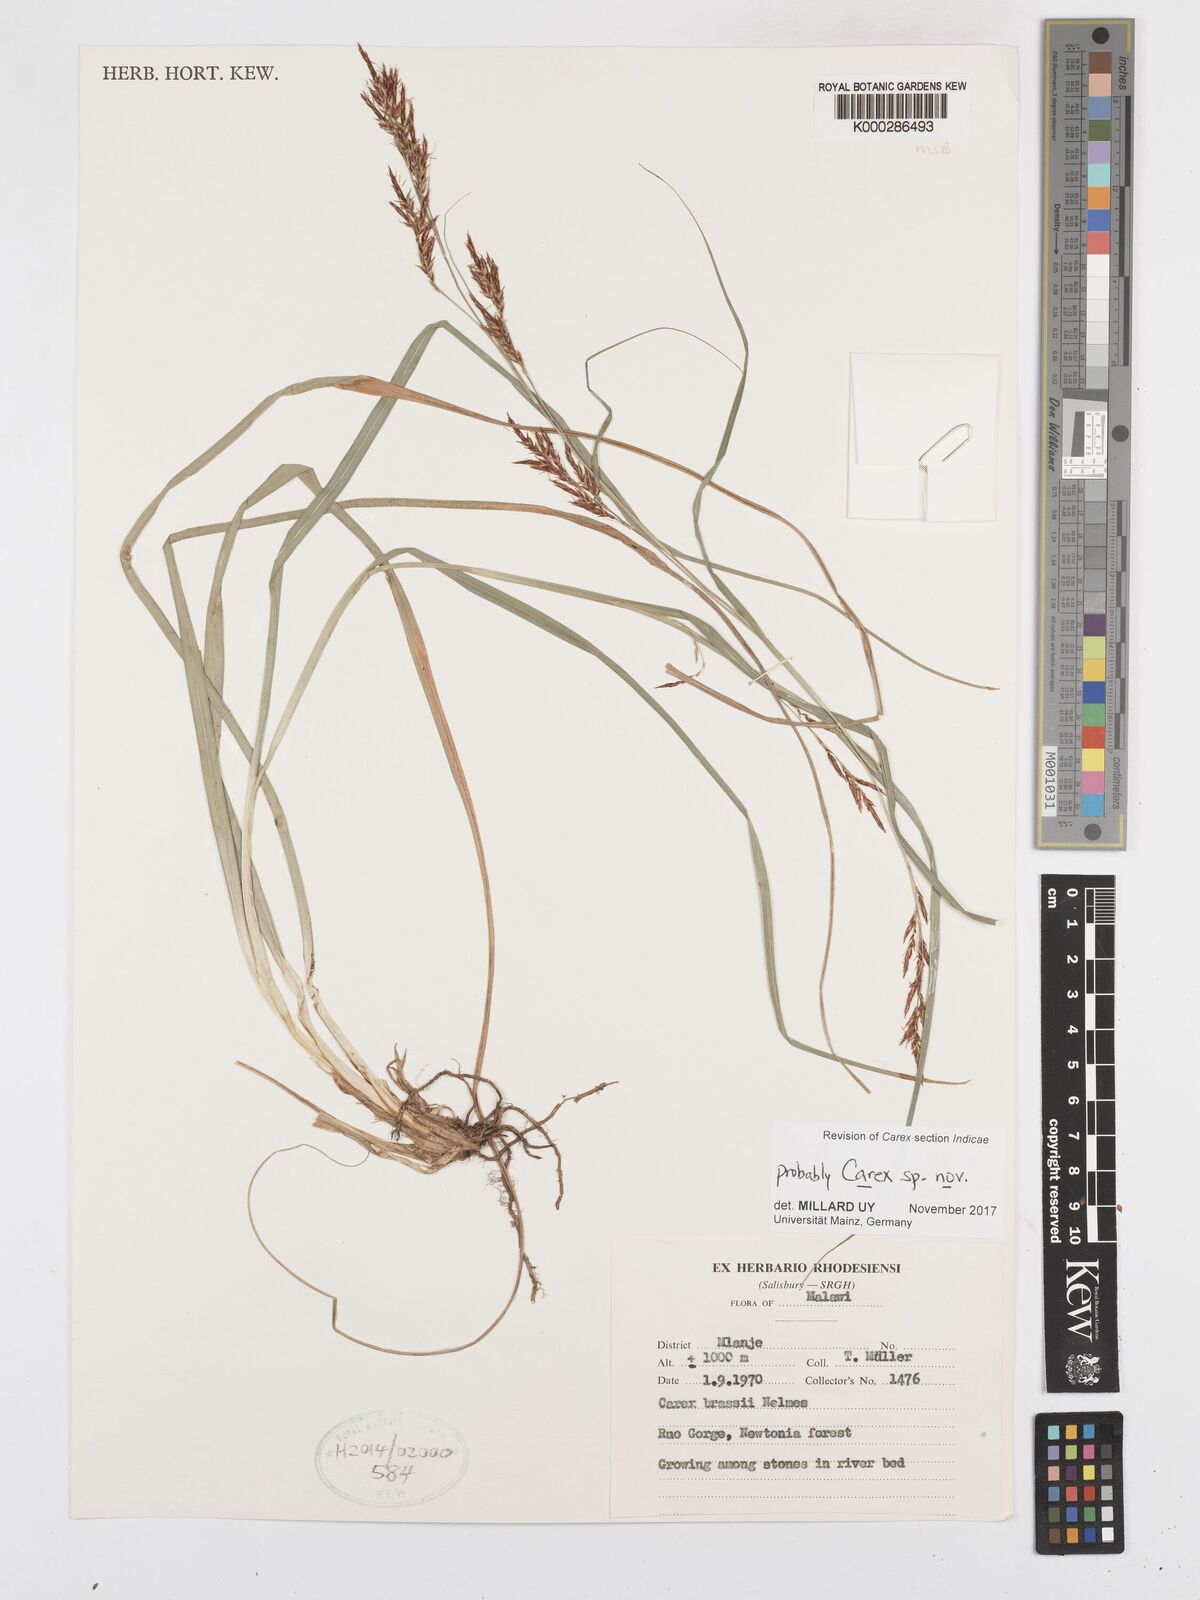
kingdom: Plantae
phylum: Tracheophyta
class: Liliopsida
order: Poales
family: Cyperaceae
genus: Carex
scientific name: Carex chlorosaccus
